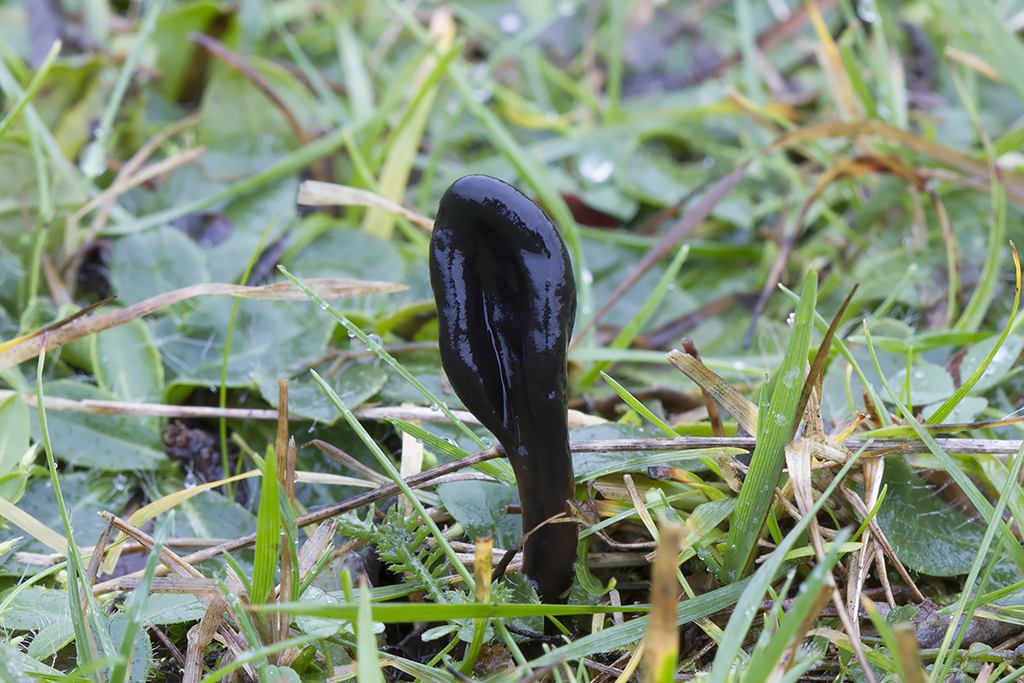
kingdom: Fungi
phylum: Ascomycota
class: Geoglossomycetes
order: Geoglossales
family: Geoglossaceae
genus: Glutinoglossum
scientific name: Glutinoglossum glutinosum
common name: slimet jordtunge
